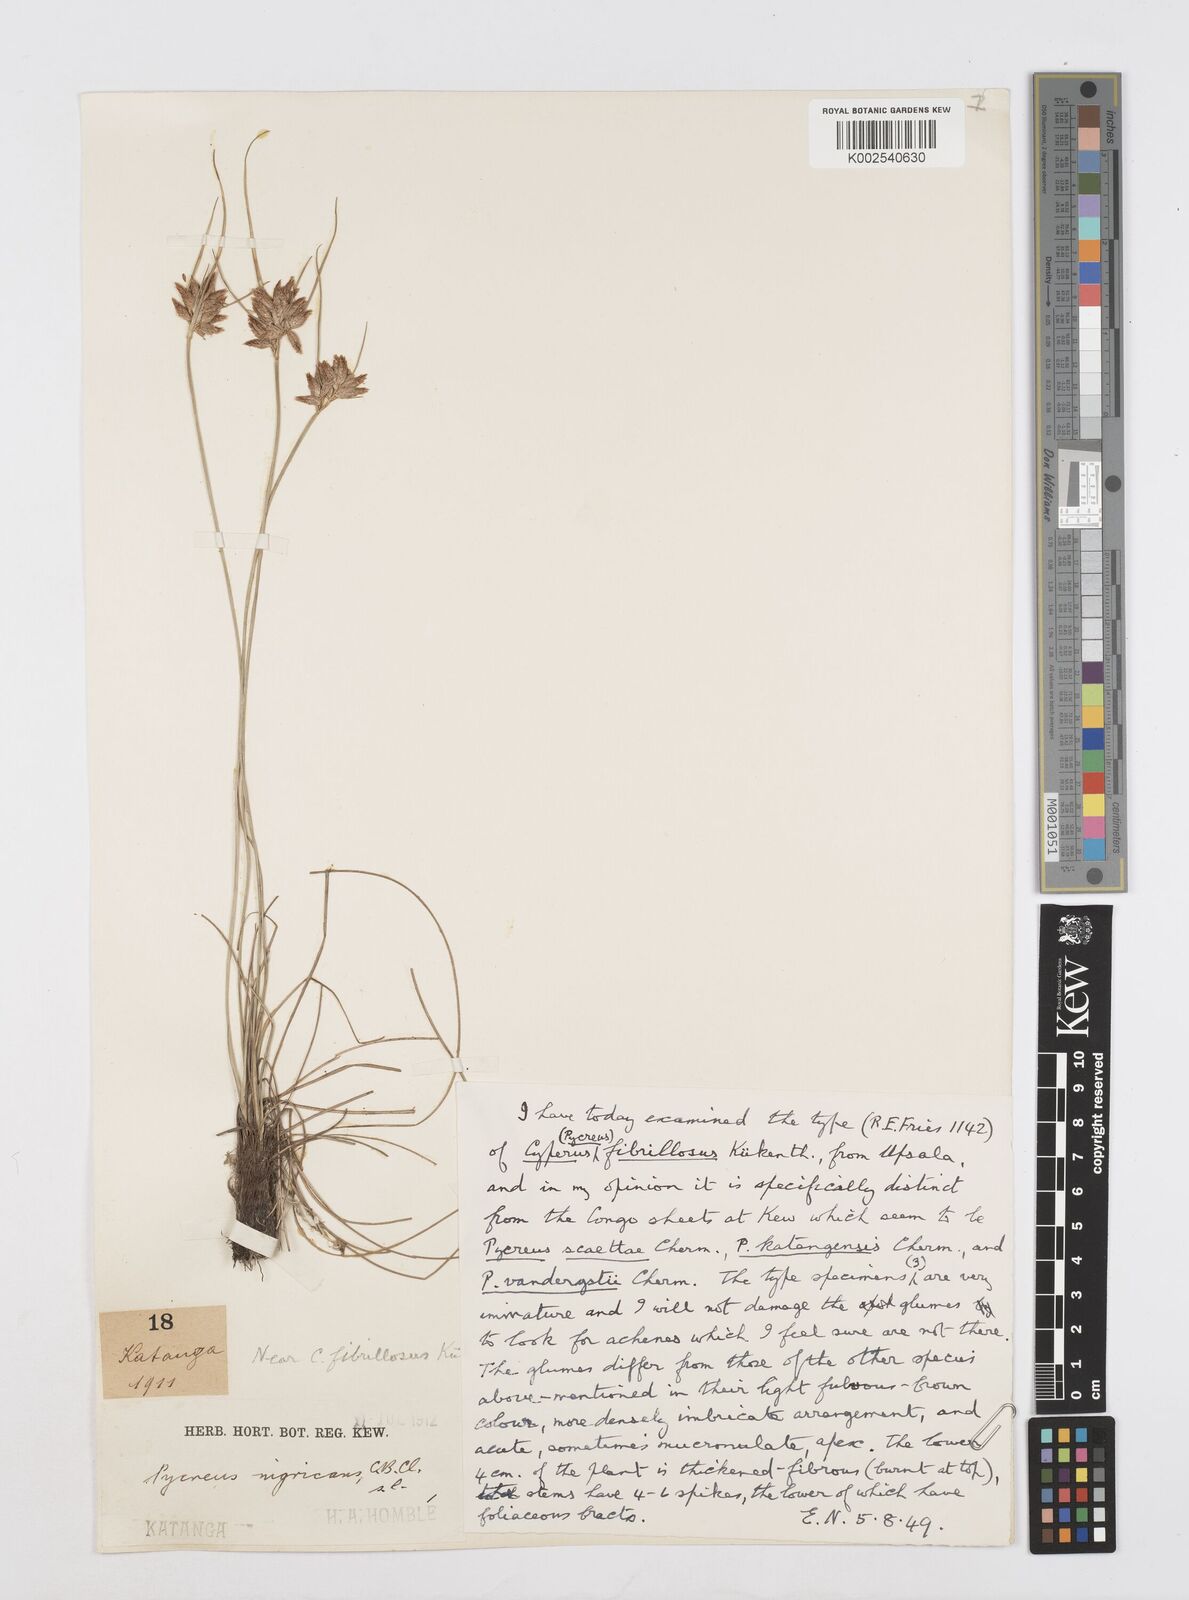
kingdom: Plantae
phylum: Tracheophyta
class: Liliopsida
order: Poales
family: Cyperaceae
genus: Cyperus
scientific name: Cyperus nigricans
